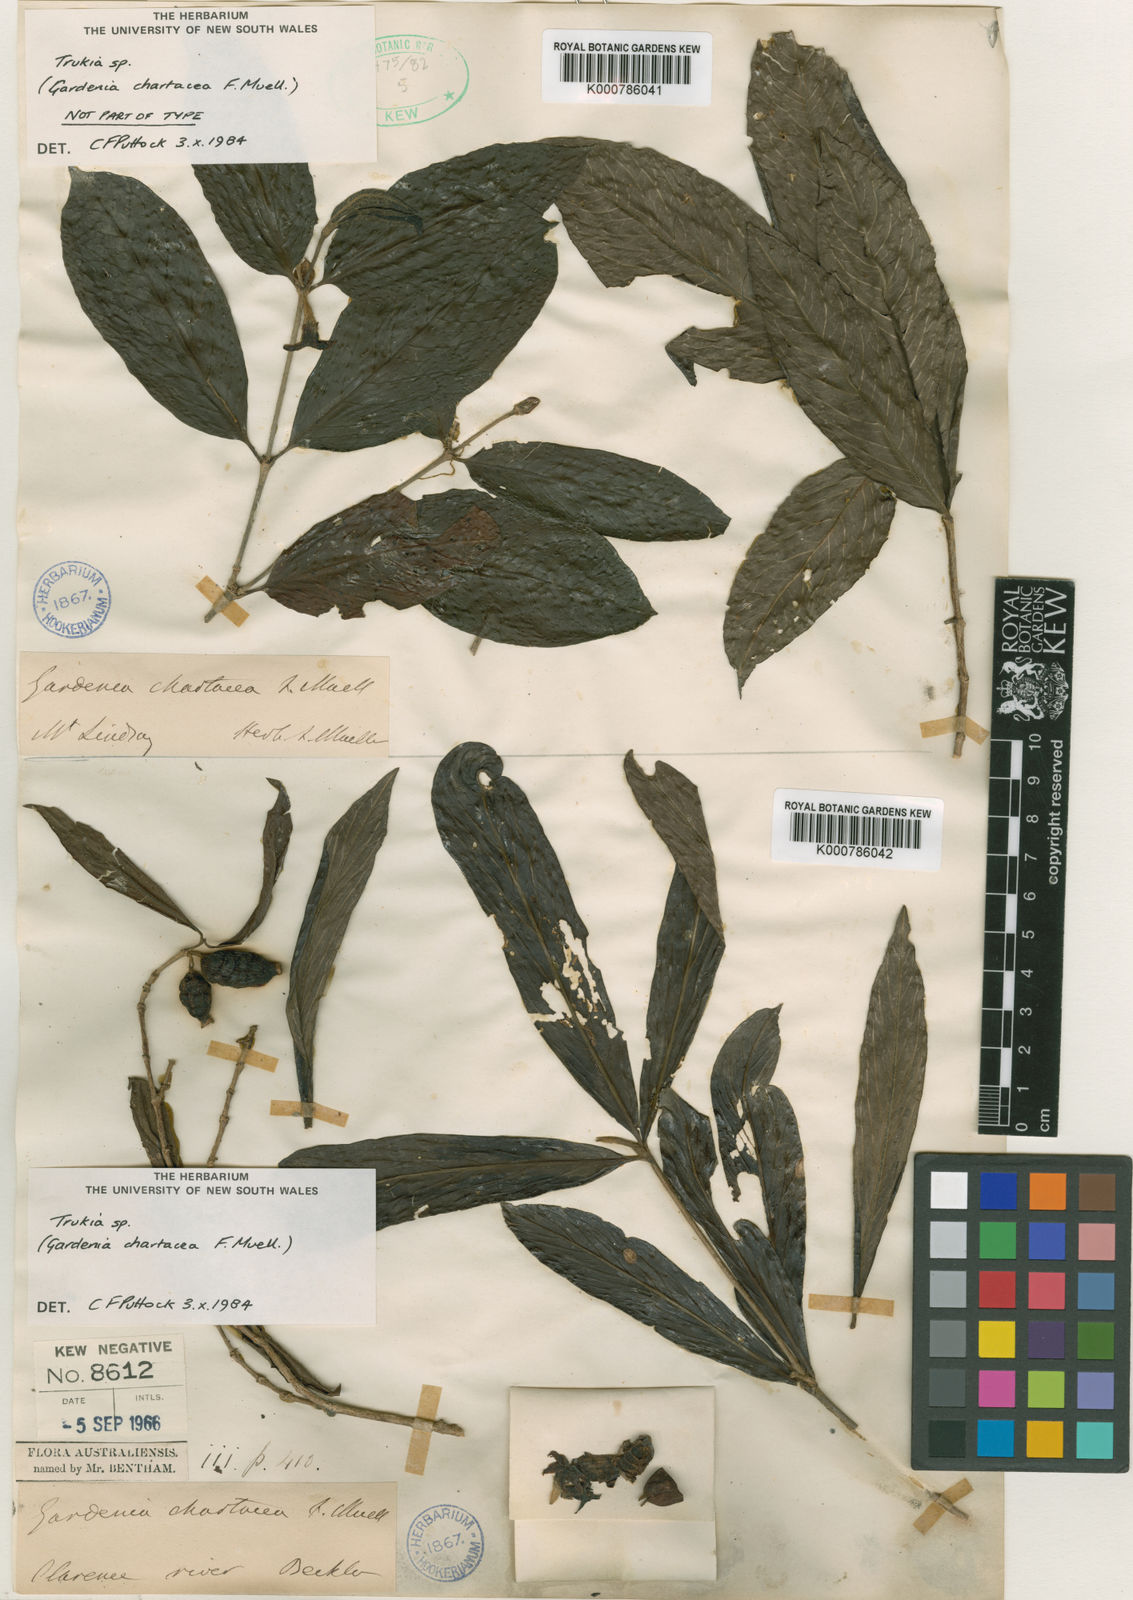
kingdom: Plantae
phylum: Tracheophyta
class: Magnoliopsida
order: Gentianales
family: Rubiaceae
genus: Atractocarpus
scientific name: Atractocarpus chartaceus
